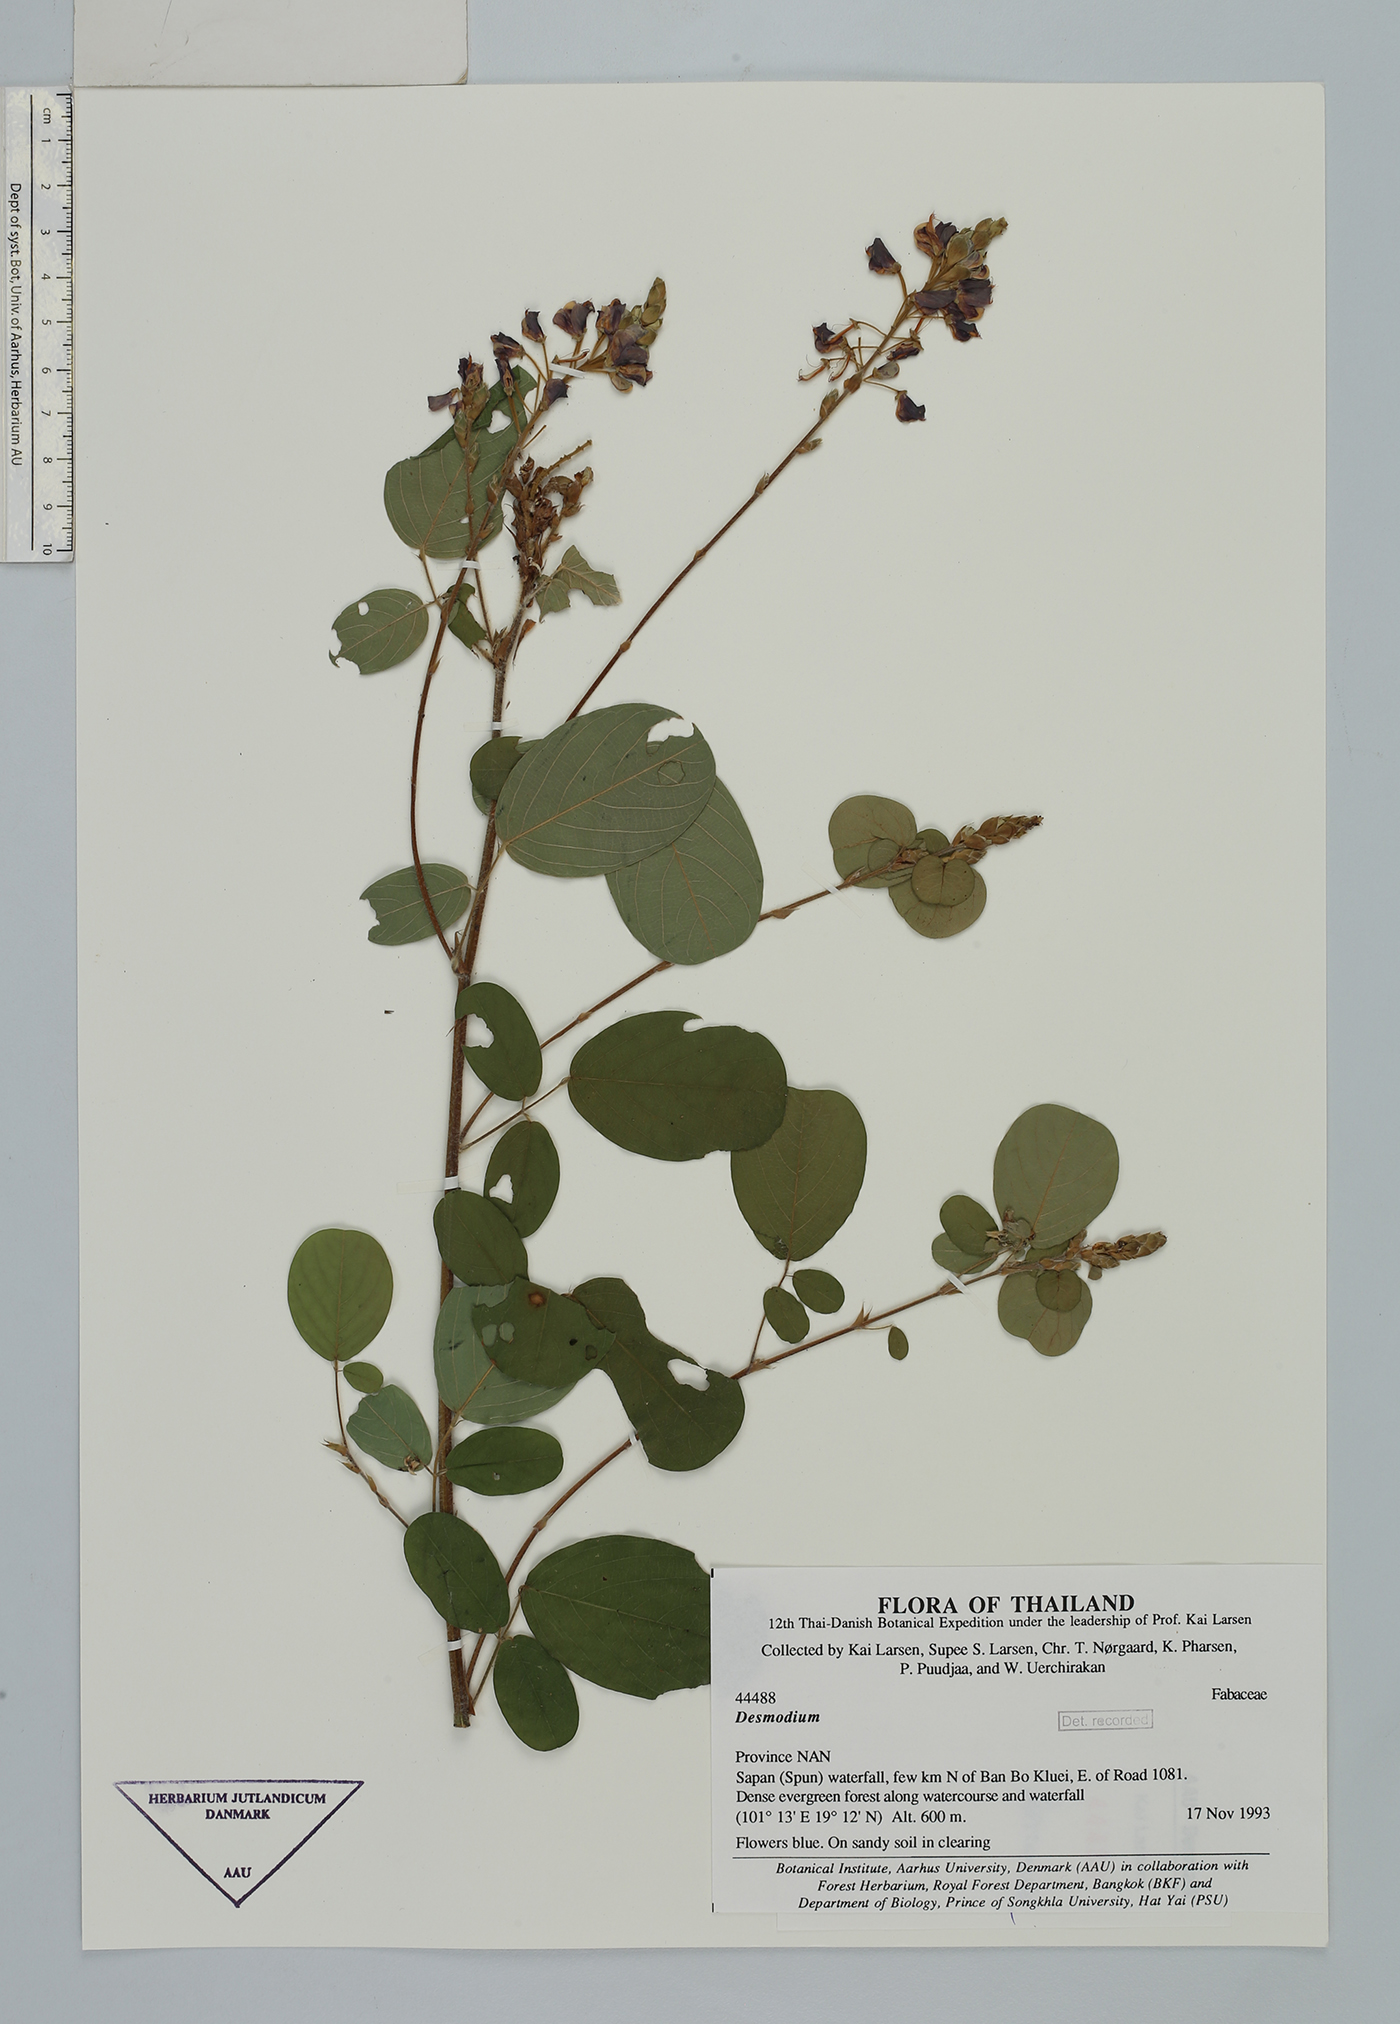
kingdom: Plantae
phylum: Tracheophyta
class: Magnoliopsida
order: Fabales
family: Fabaceae
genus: Codariocalyx
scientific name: Codariocalyx gyroides
